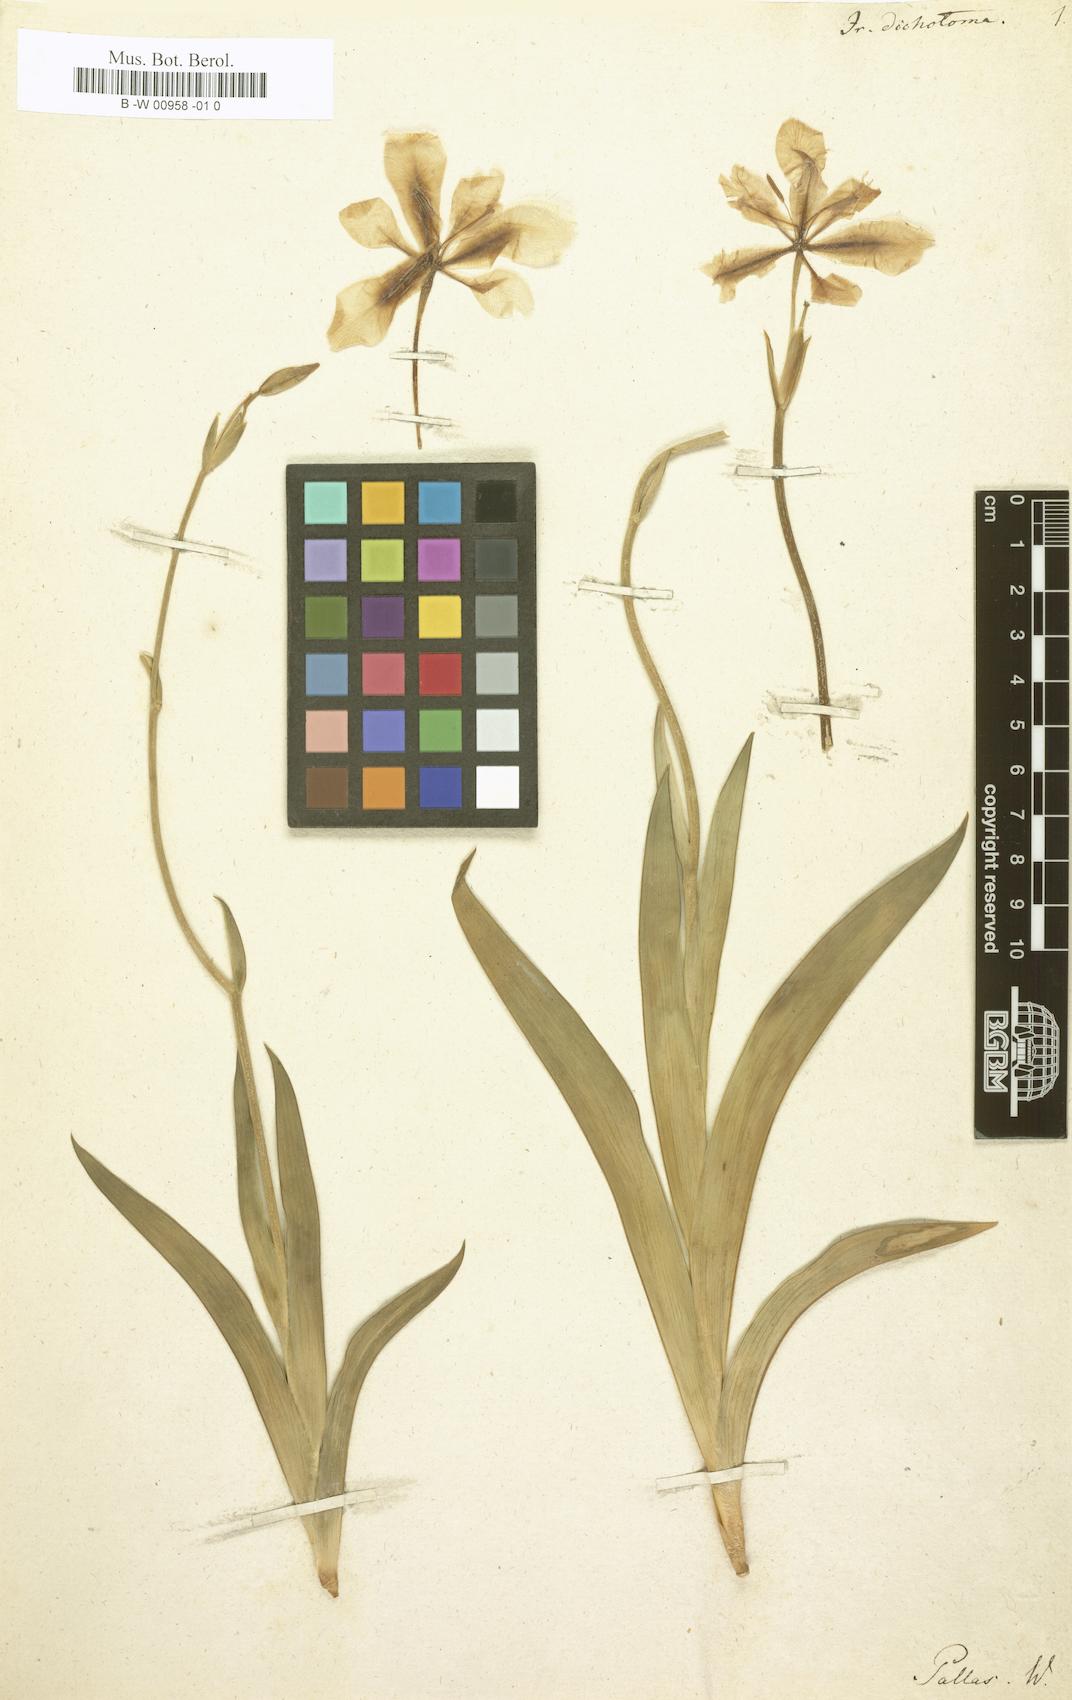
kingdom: Plantae
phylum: Tracheophyta
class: Liliopsida
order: Asparagales
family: Iridaceae
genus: Iris
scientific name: Iris dichotoma
